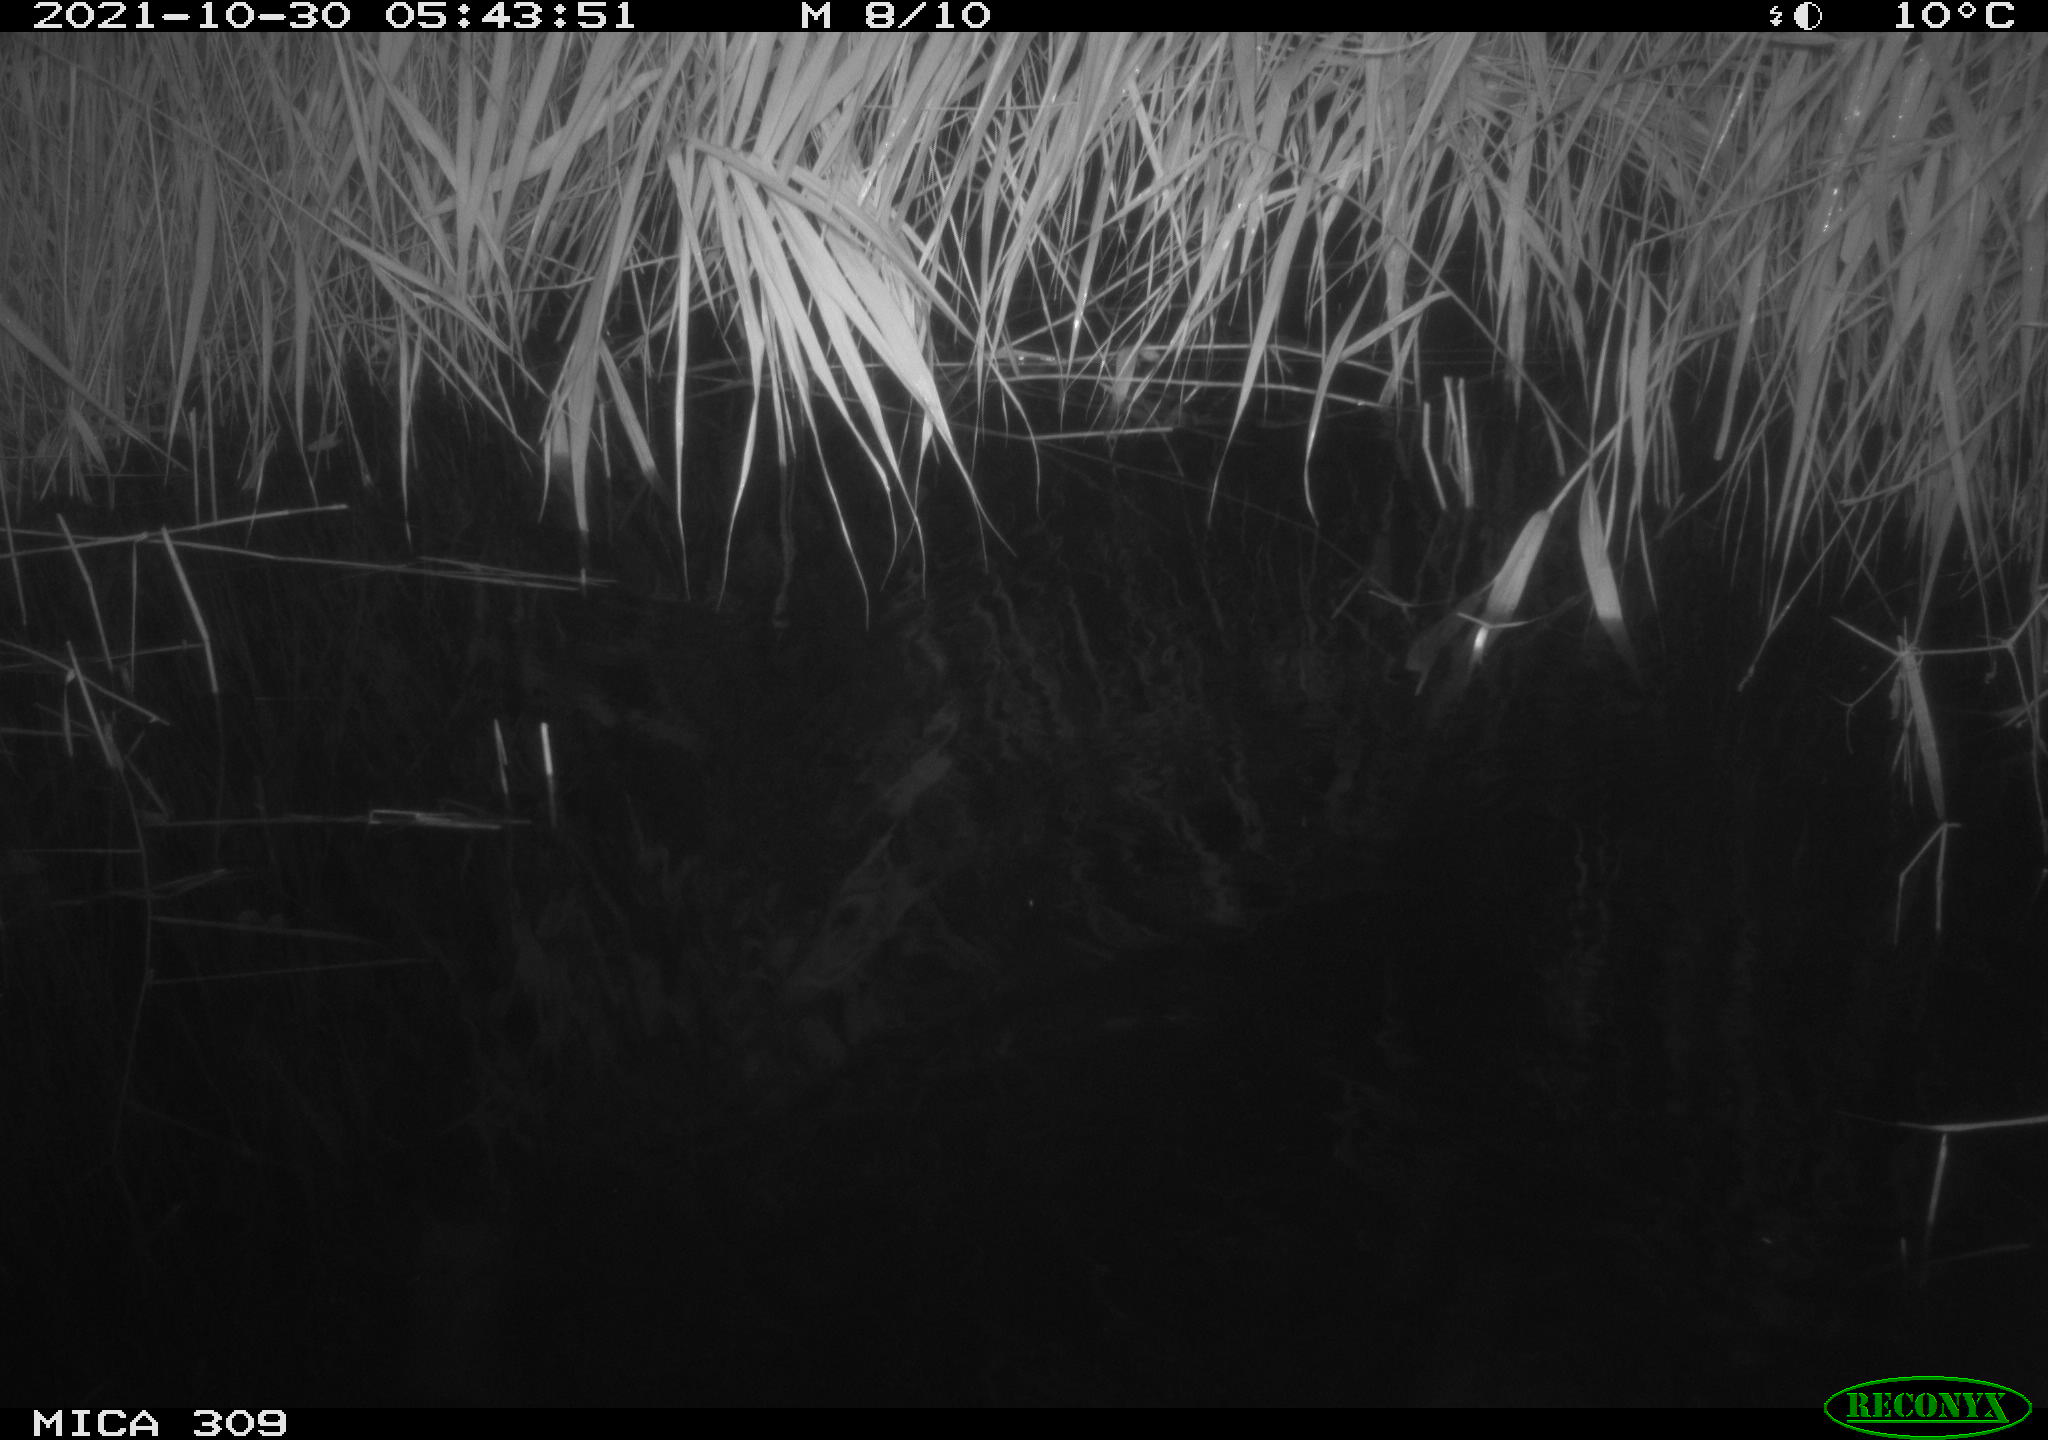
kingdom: Animalia
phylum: Chordata
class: Mammalia
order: Rodentia
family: Muridae
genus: Rattus
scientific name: Rattus norvegicus
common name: Brown rat
